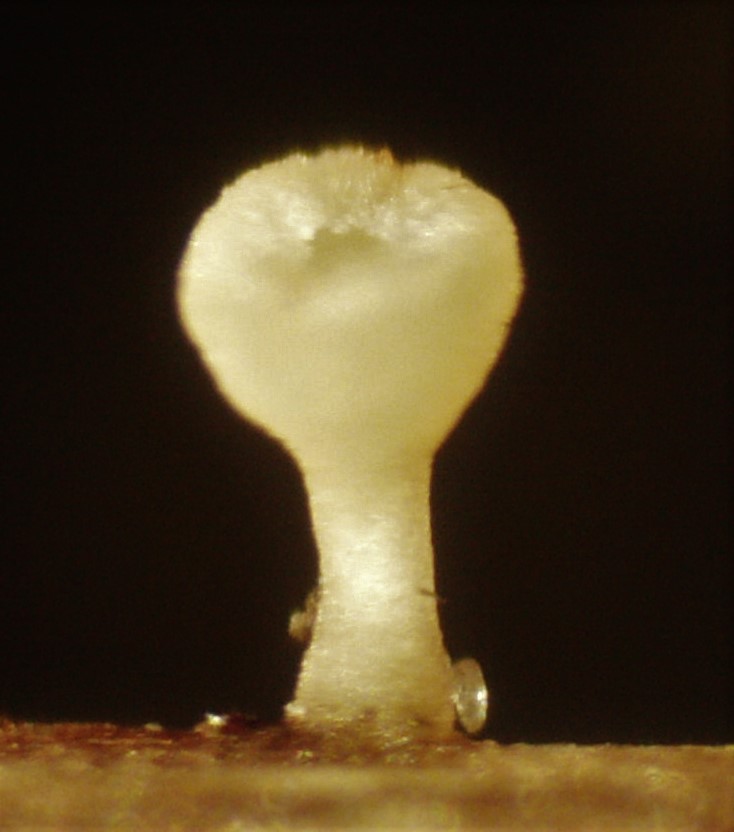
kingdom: Fungi
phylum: Ascomycota
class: Leotiomycetes
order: Helotiales
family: Helotiaceae
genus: Cyathicula
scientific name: Cyathicula cyathoidea
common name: pokal-stilkskive
